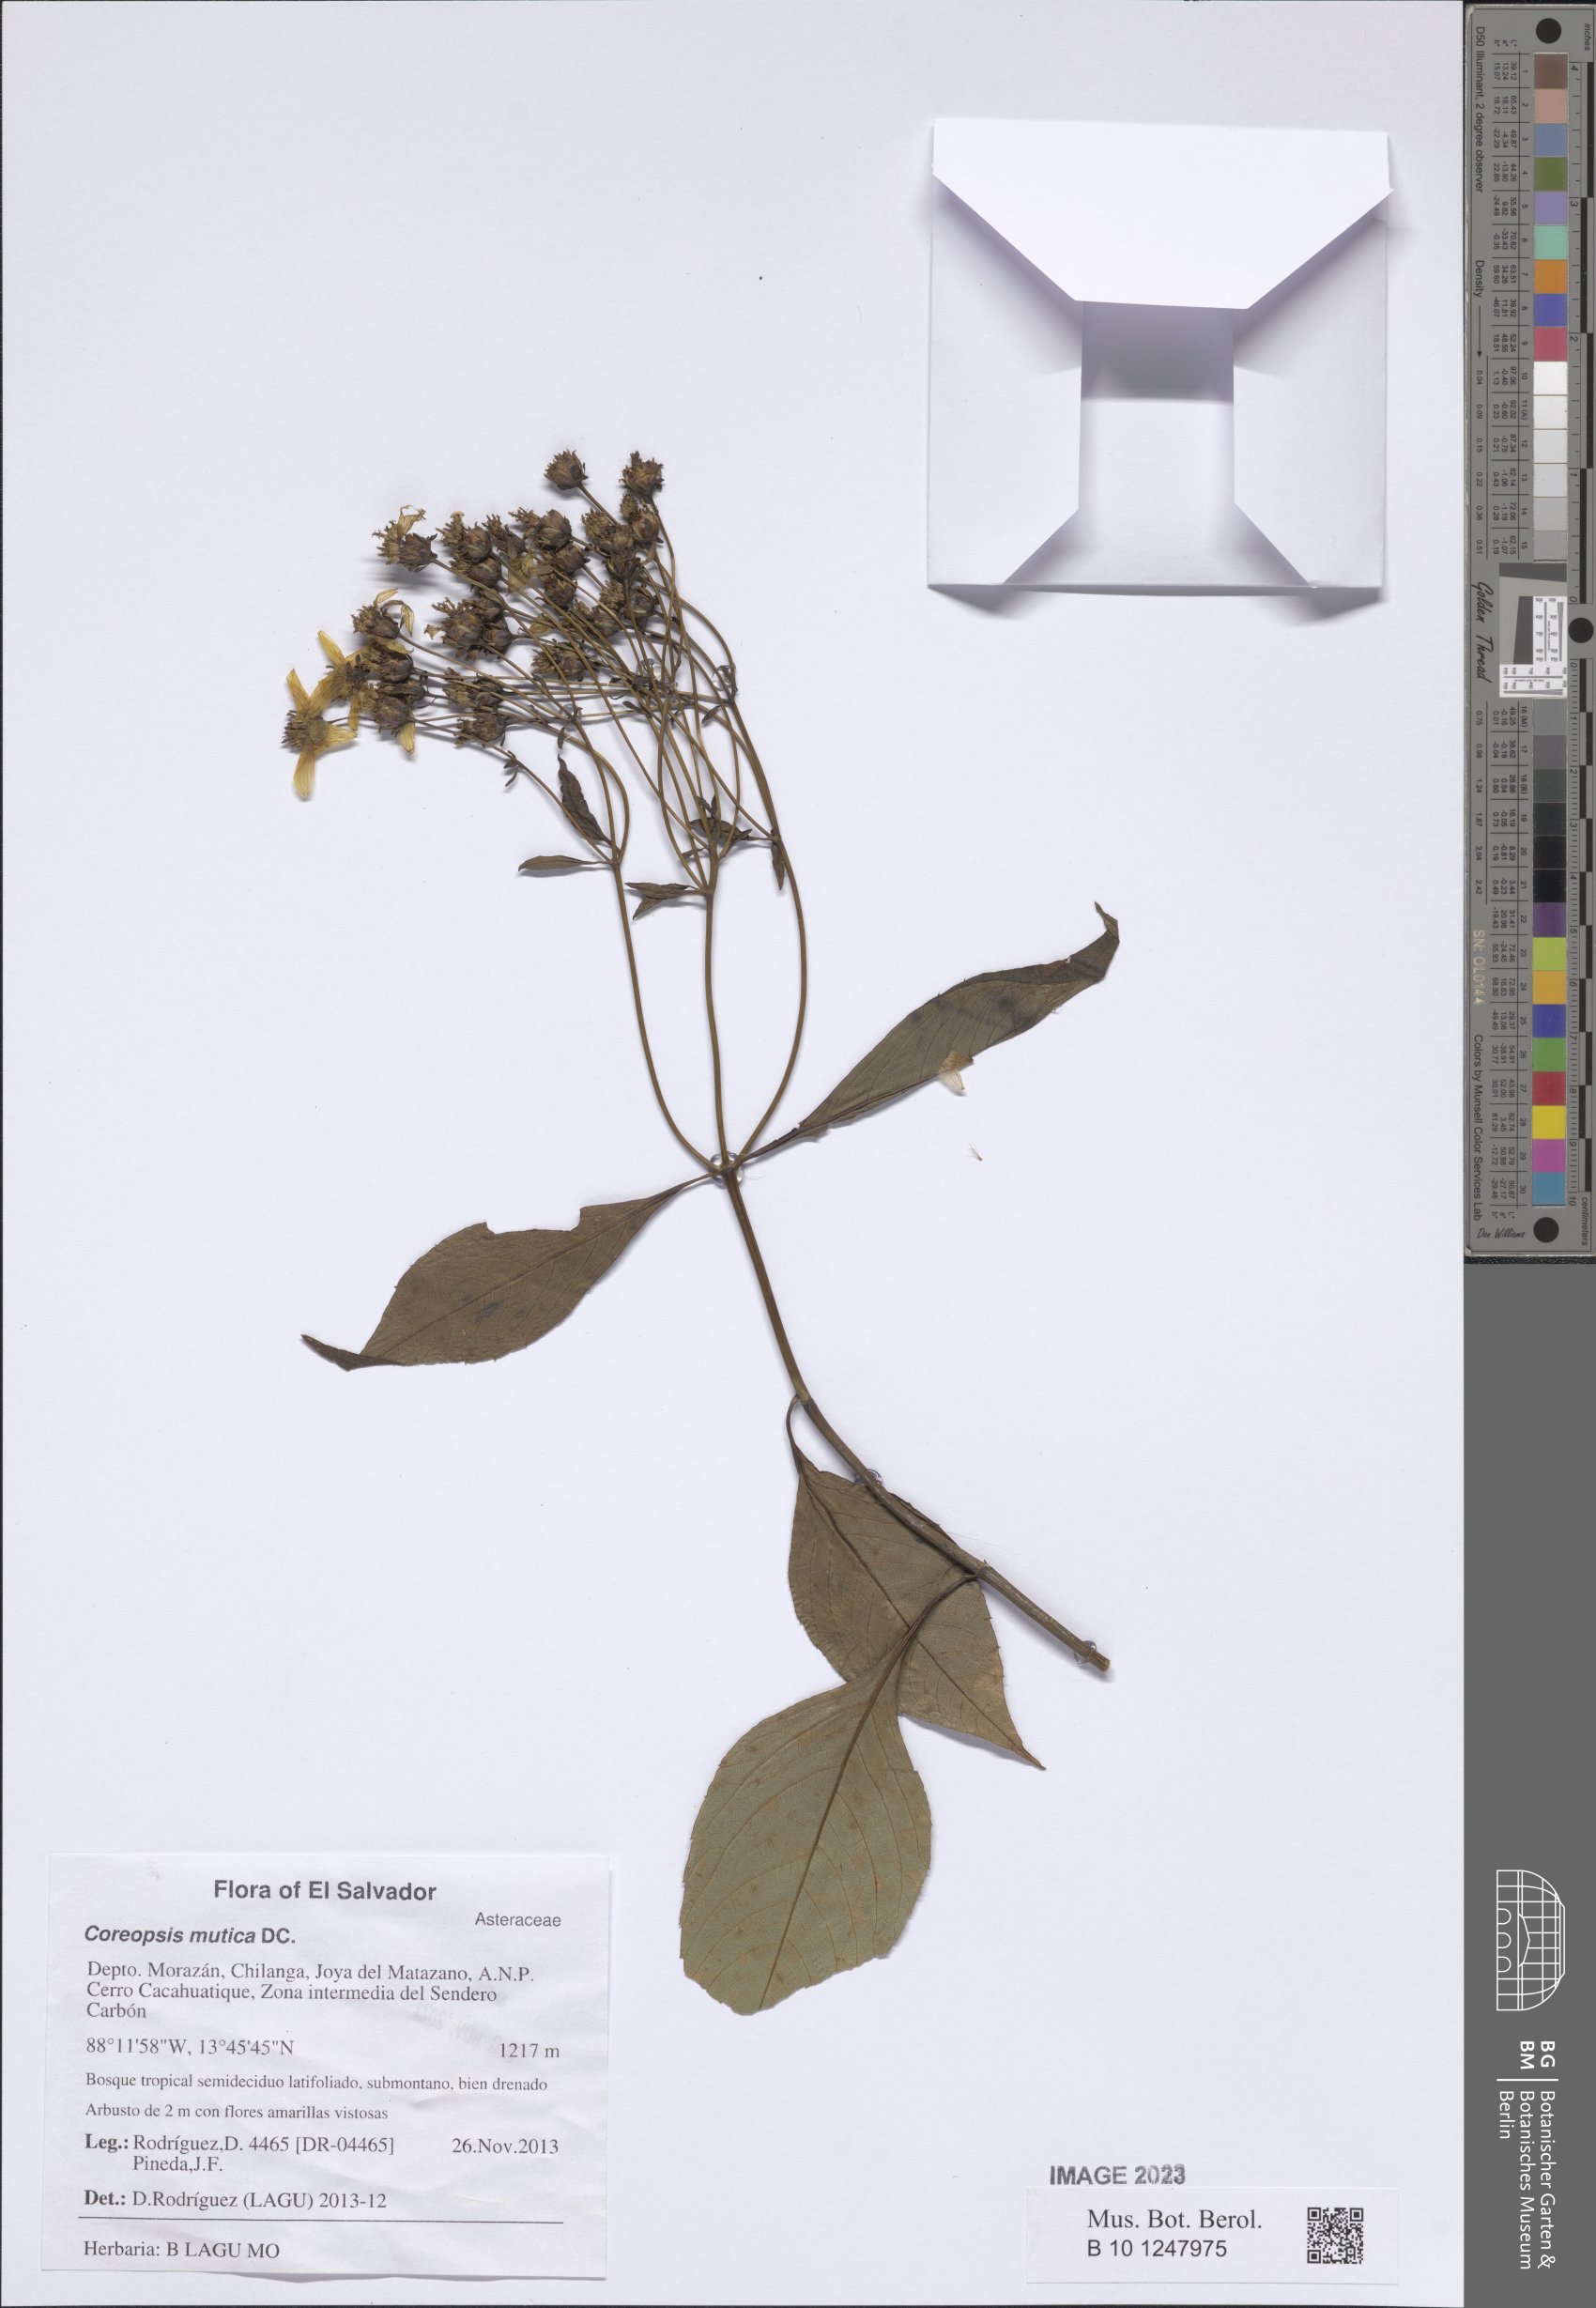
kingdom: Plantae
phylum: Tracheophyta
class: Magnoliopsida
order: Asterales
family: Asteraceae
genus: Electranthera
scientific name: Electranthera mutica
